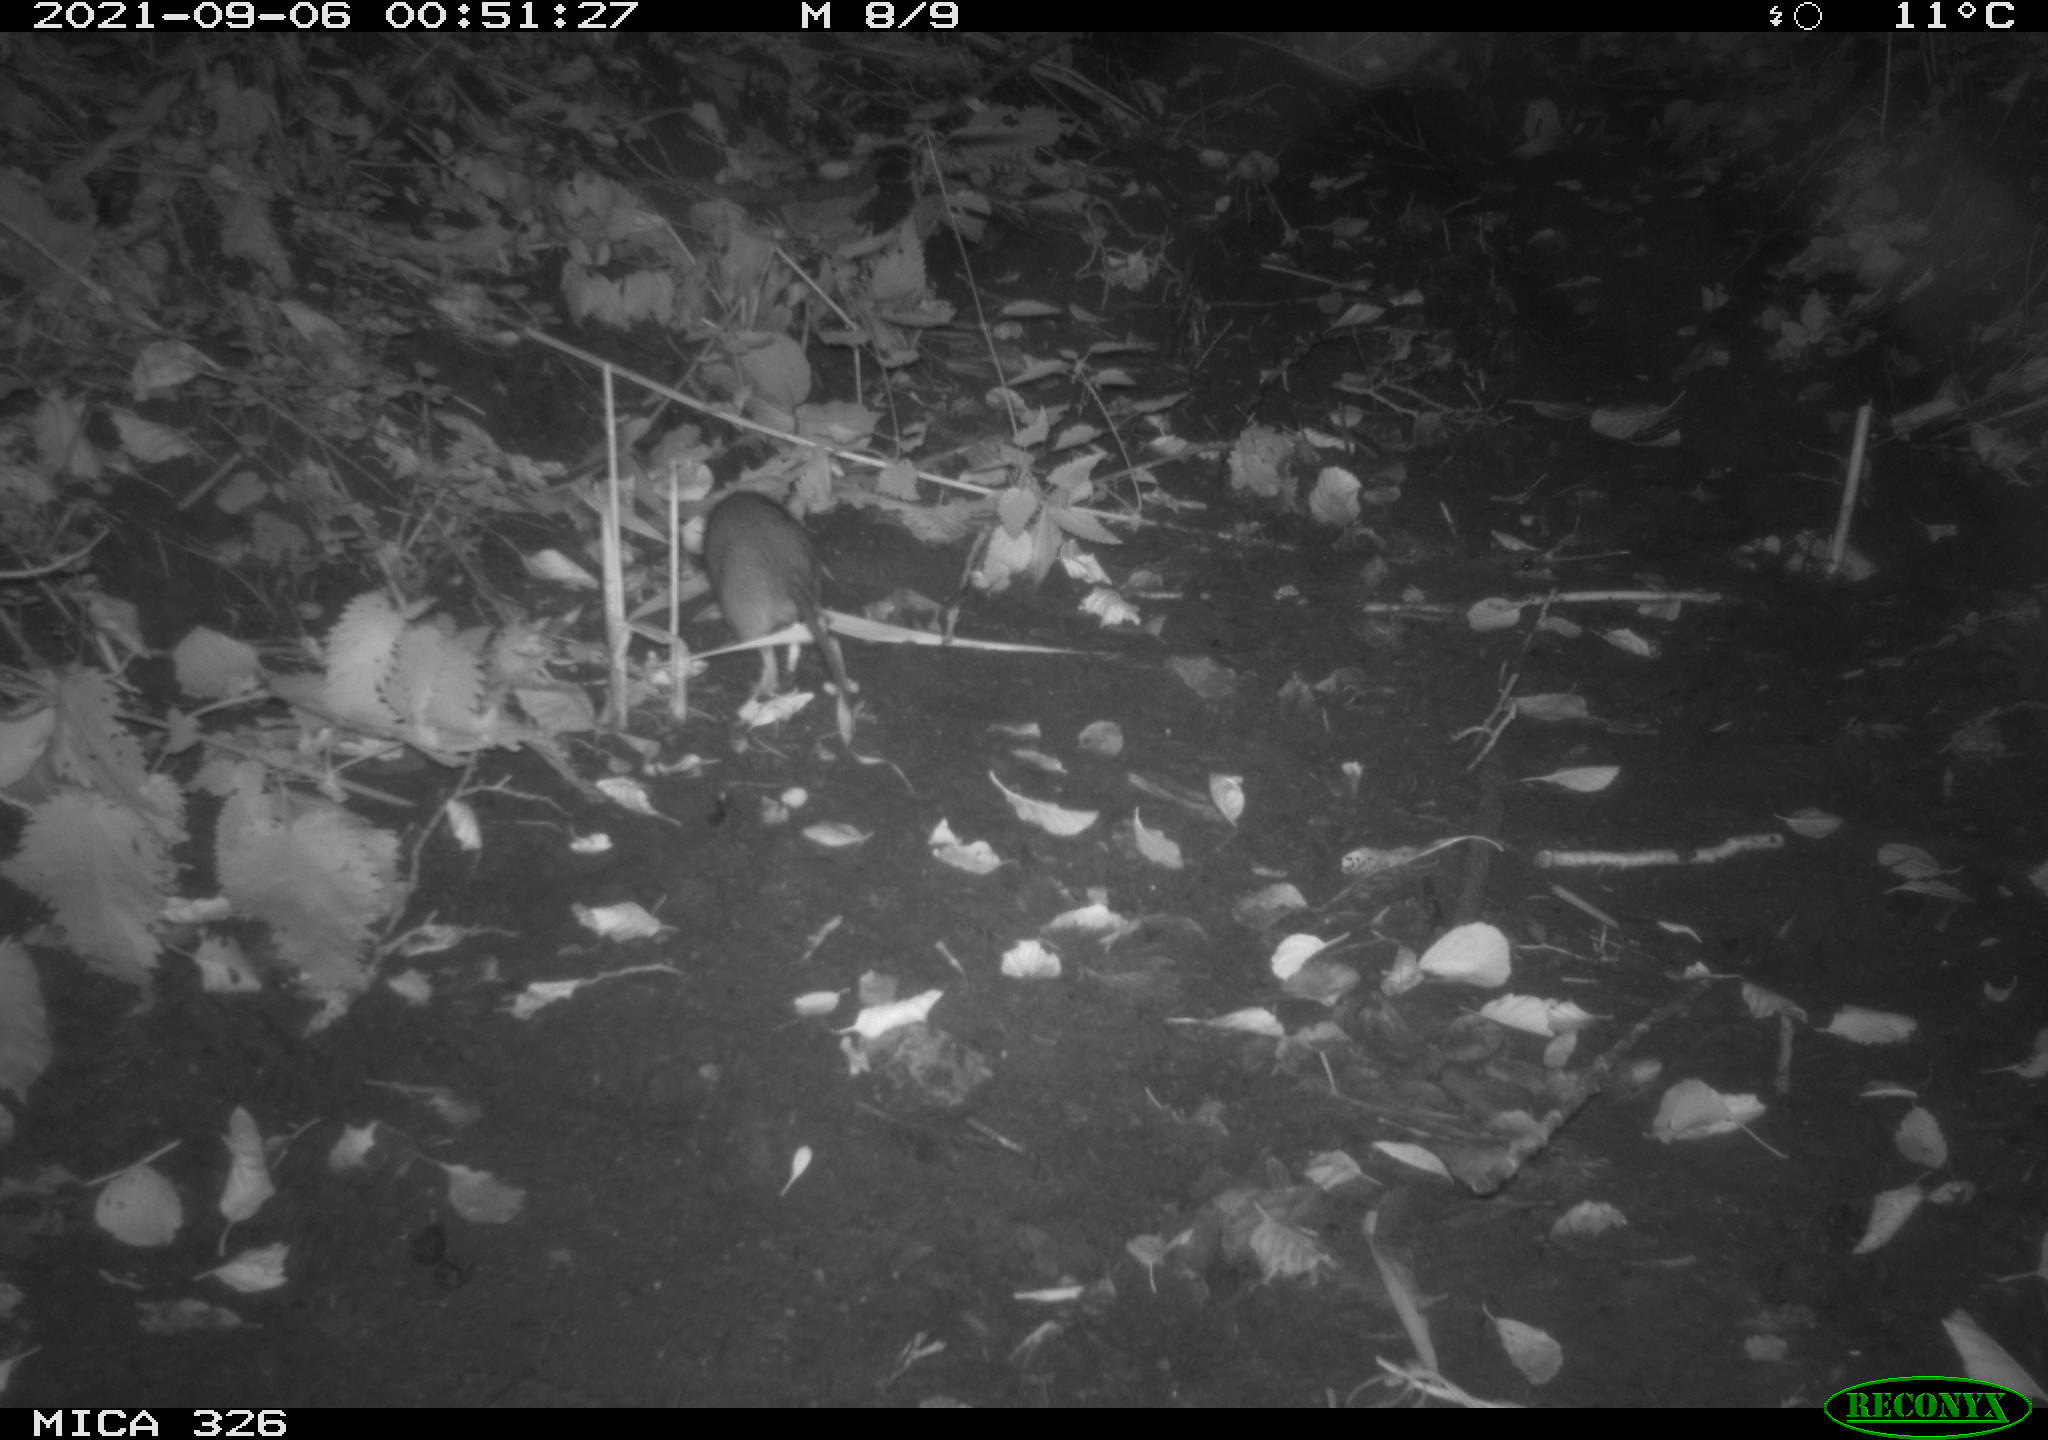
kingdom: Animalia
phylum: Chordata
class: Mammalia
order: Rodentia
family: Muridae
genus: Rattus
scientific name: Rattus norvegicus
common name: Brown rat
